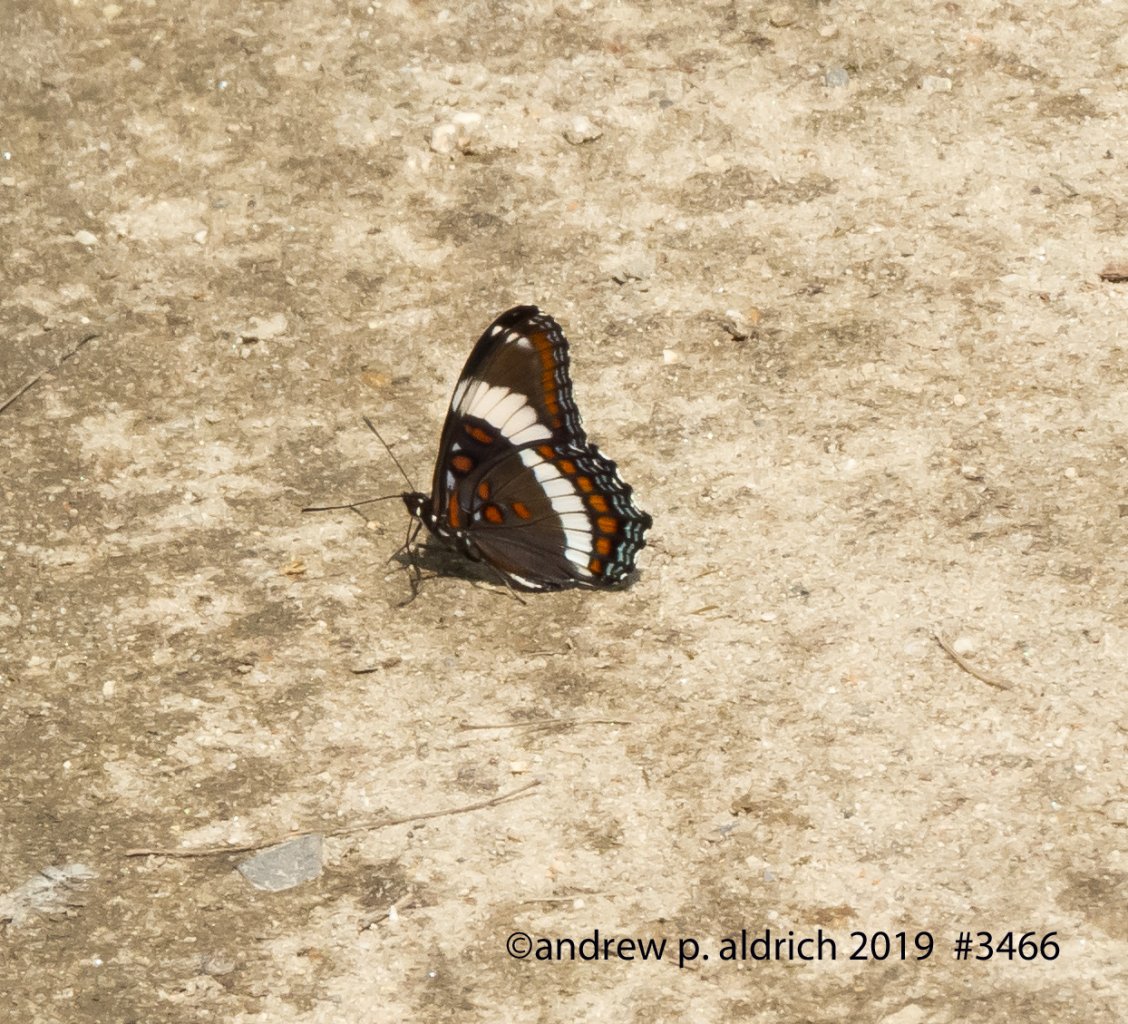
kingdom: Animalia
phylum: Arthropoda
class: Insecta
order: Lepidoptera
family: Nymphalidae
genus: Limenitis
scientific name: Limenitis arthemis
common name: Red-spotted Admiral
